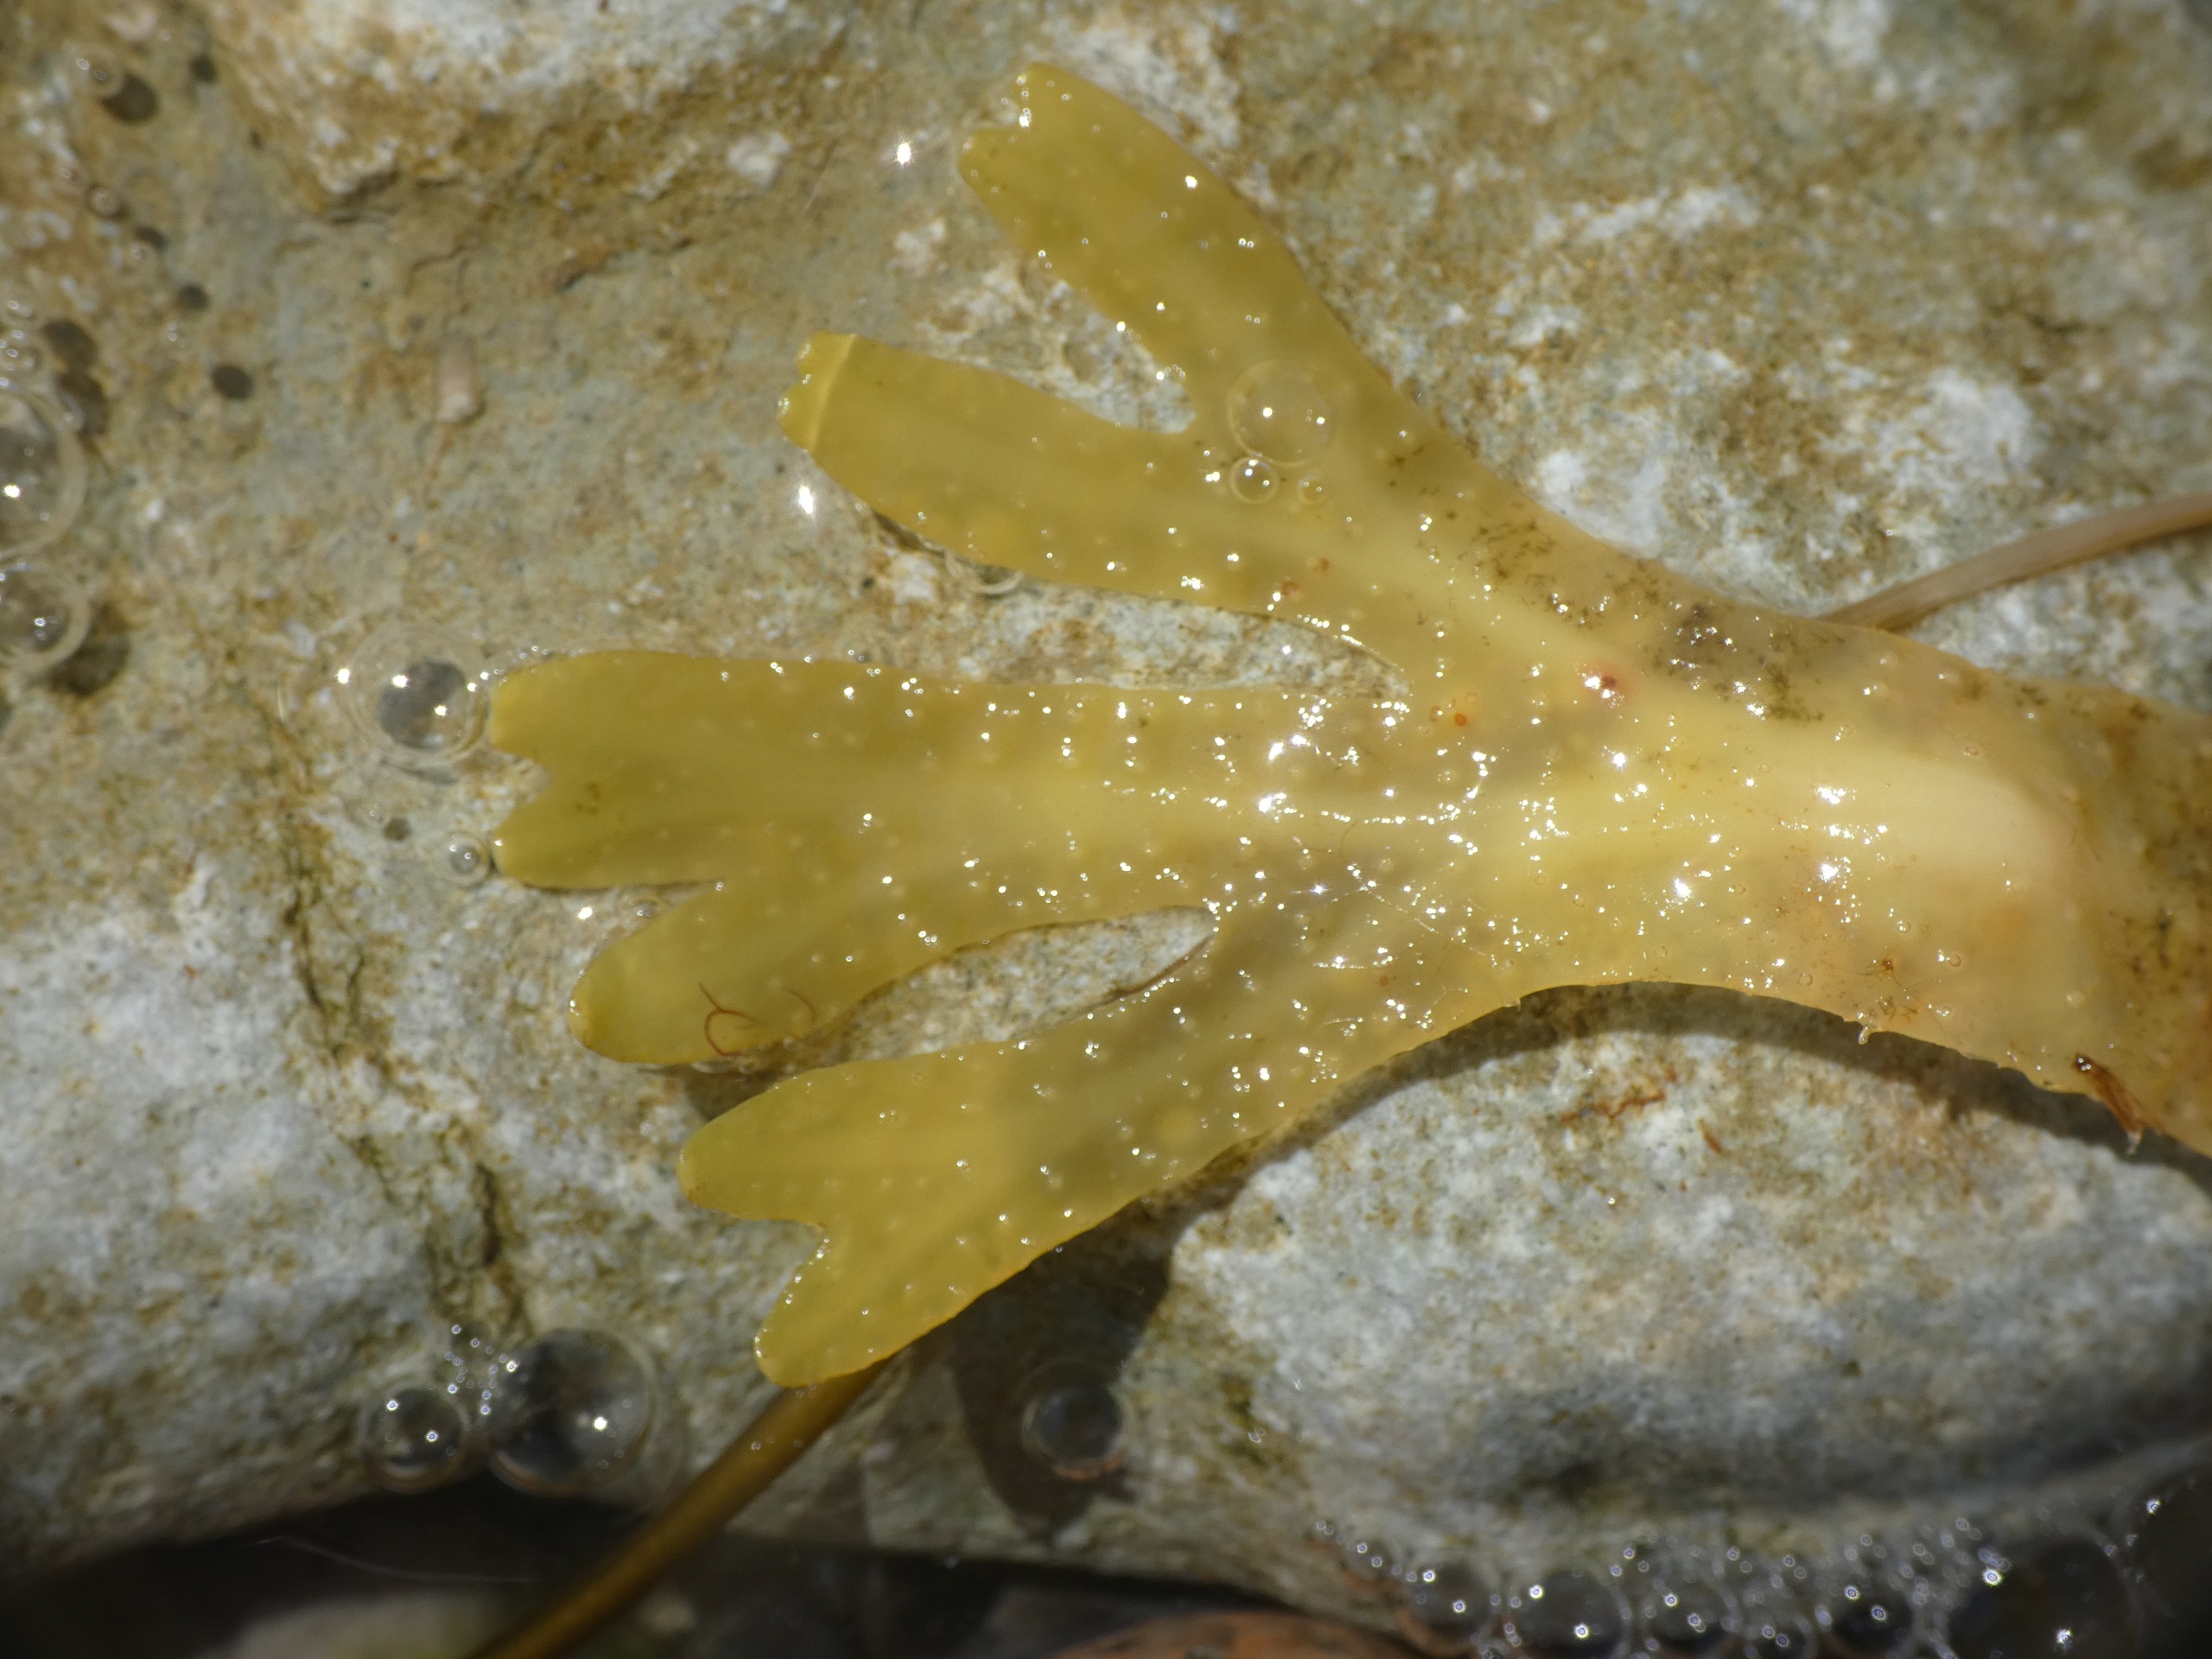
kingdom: Chromista
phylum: Ochrophyta
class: Phaeophyceae
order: Fucales
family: Fucaceae
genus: Fucus
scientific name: Fucus vesiculosus
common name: Blæretang
